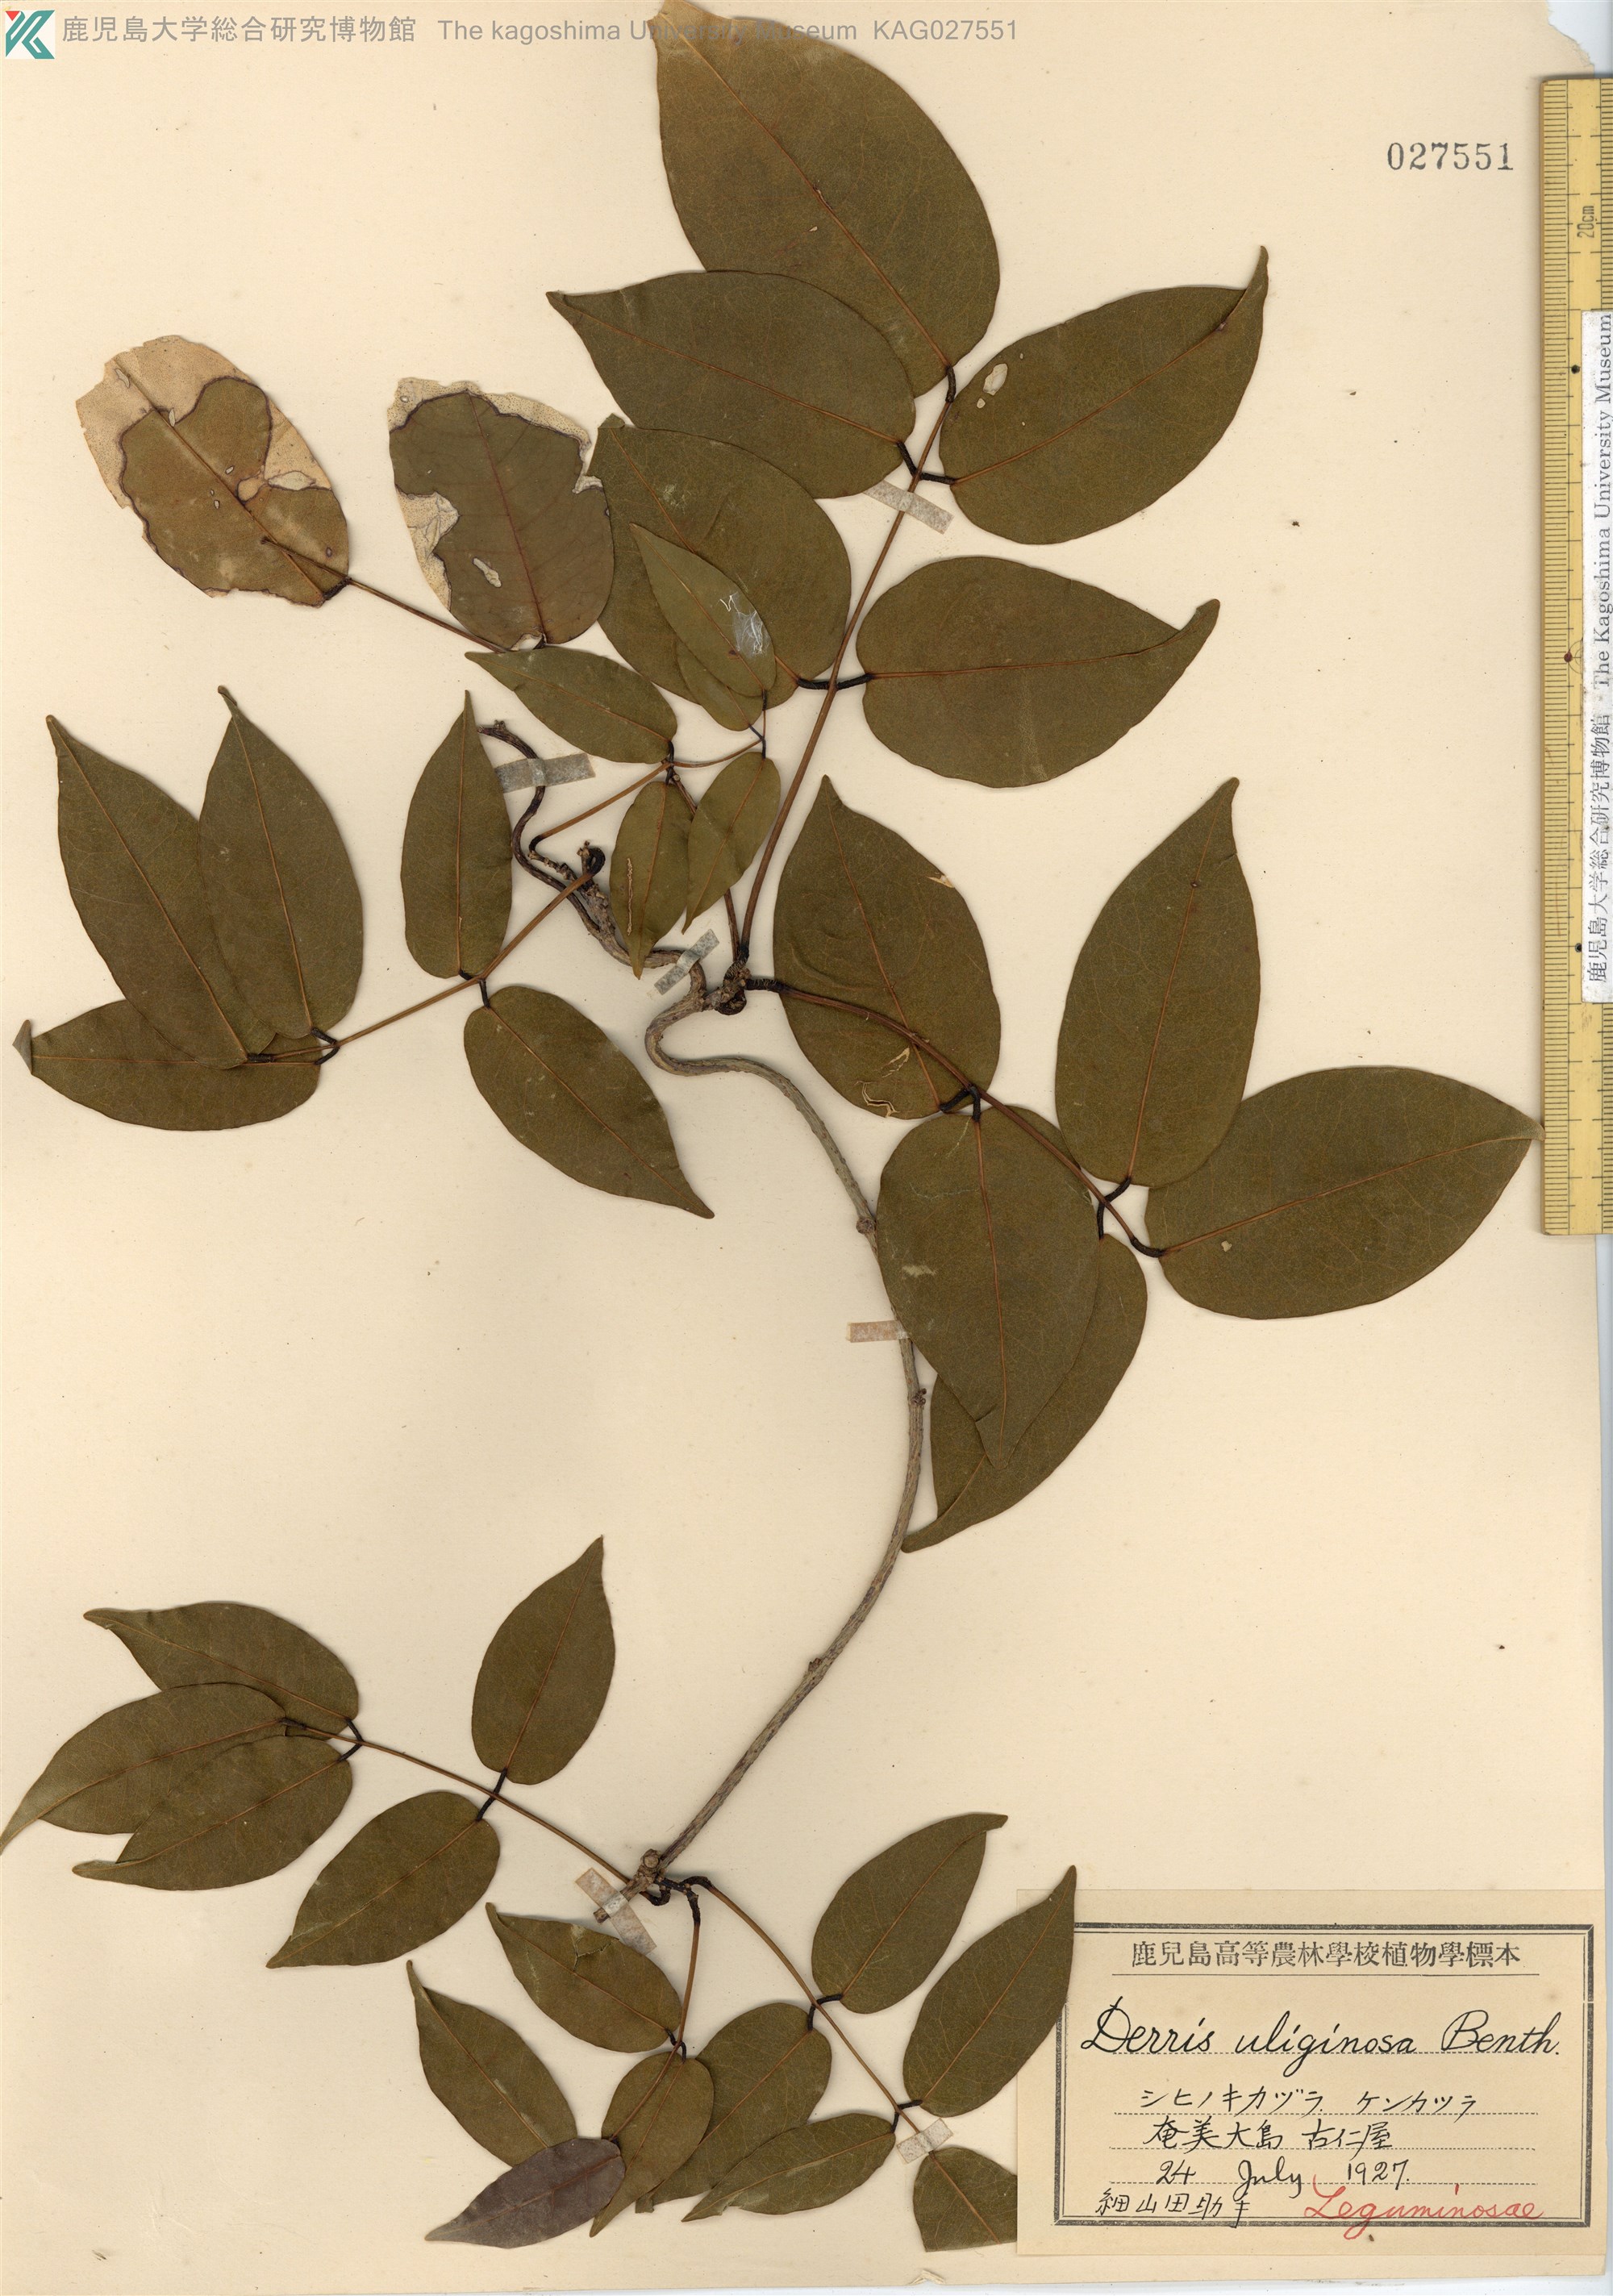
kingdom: Plantae
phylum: Tracheophyta
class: Magnoliopsida
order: Fabales
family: Fabaceae
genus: Derris
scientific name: Derris trifoliata
